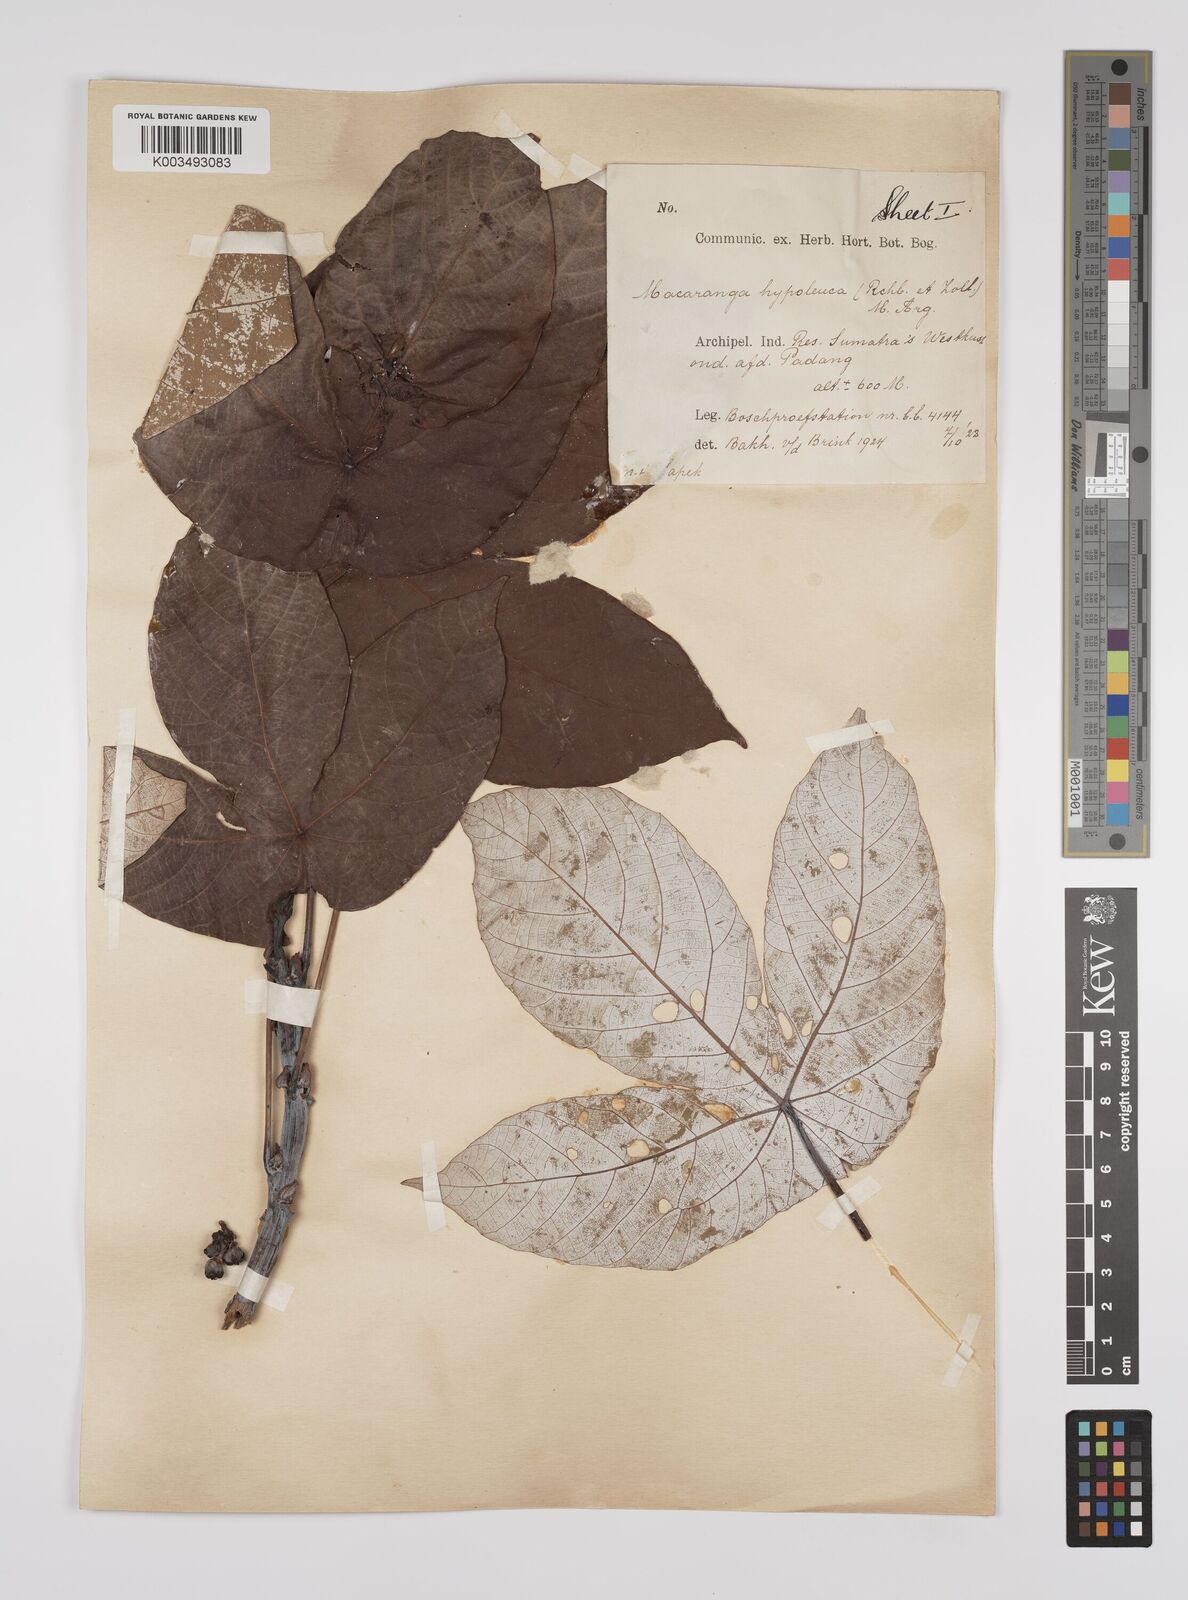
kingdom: Plantae
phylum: Tracheophyta
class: Magnoliopsida
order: Malpighiales
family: Euphorbiaceae
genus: Macaranga
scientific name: Macaranga hypoleuca
